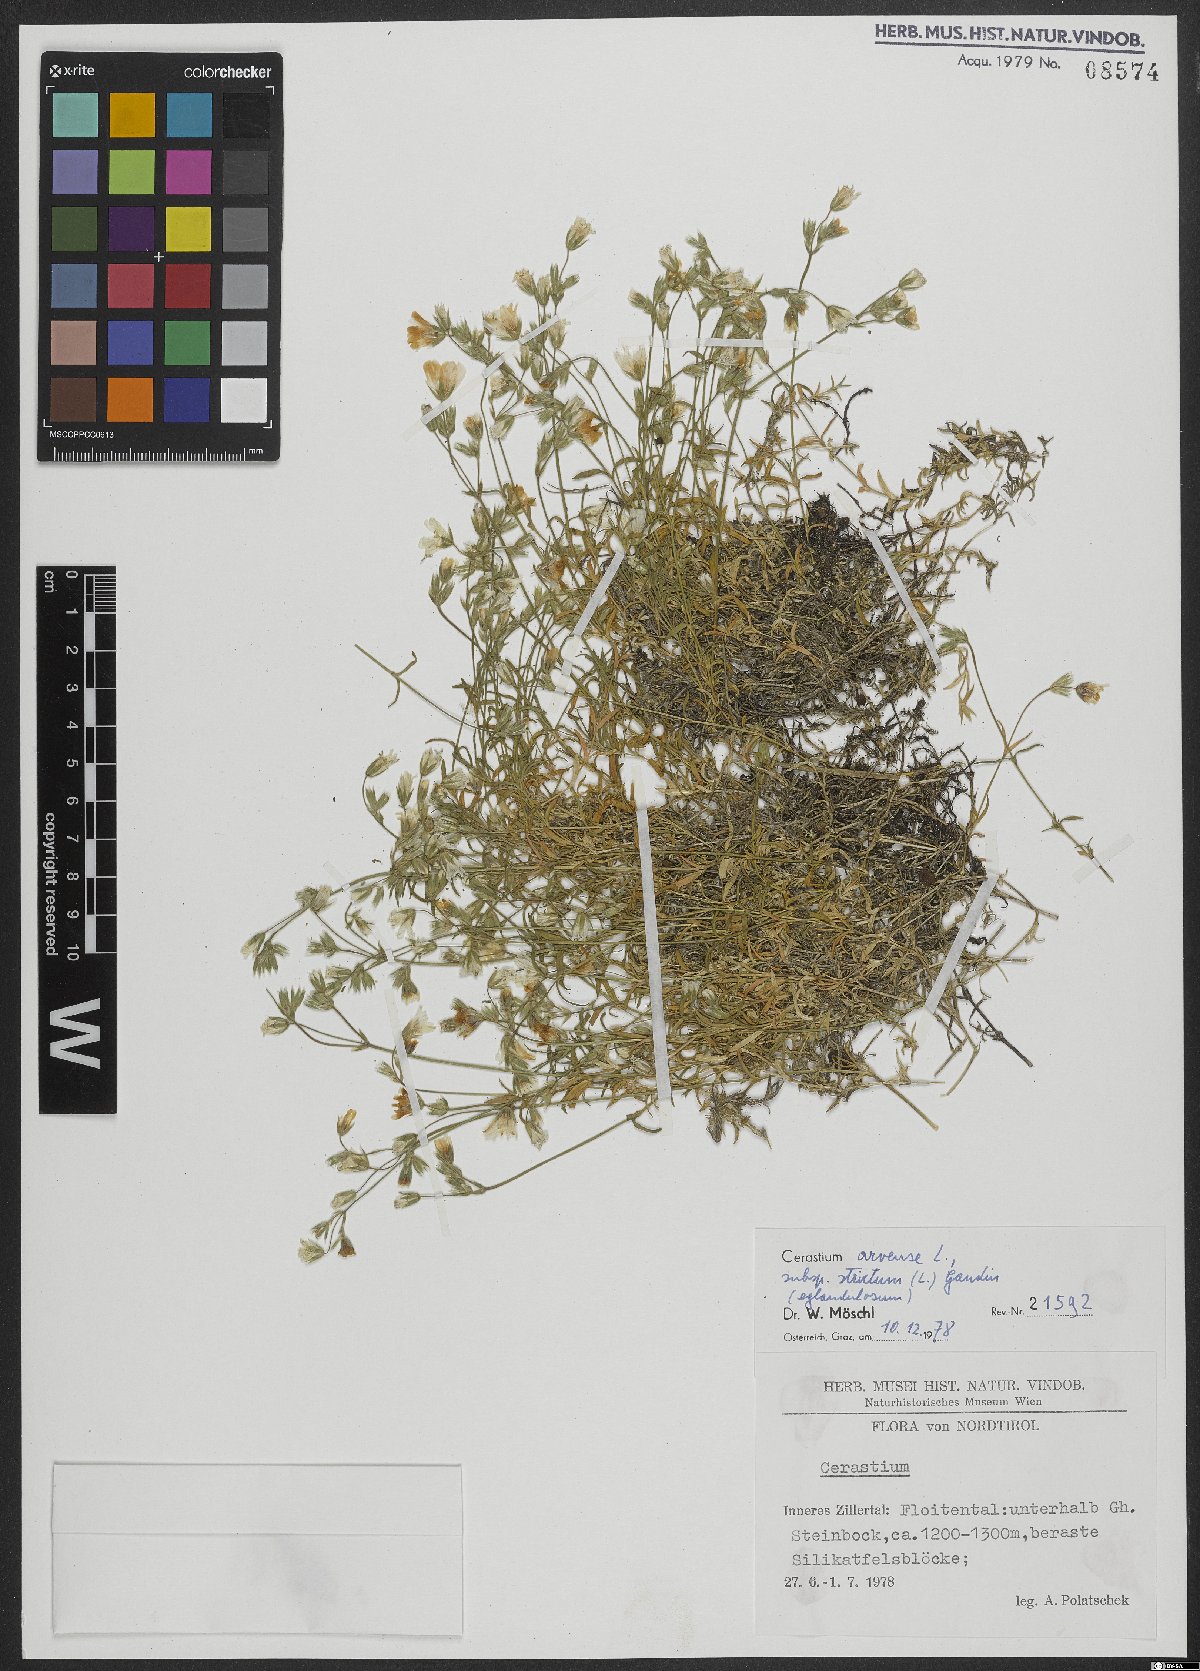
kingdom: Plantae
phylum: Tracheophyta
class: Magnoliopsida
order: Caryophyllales
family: Caryophyllaceae
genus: Cerastium
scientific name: Cerastium elongatum
